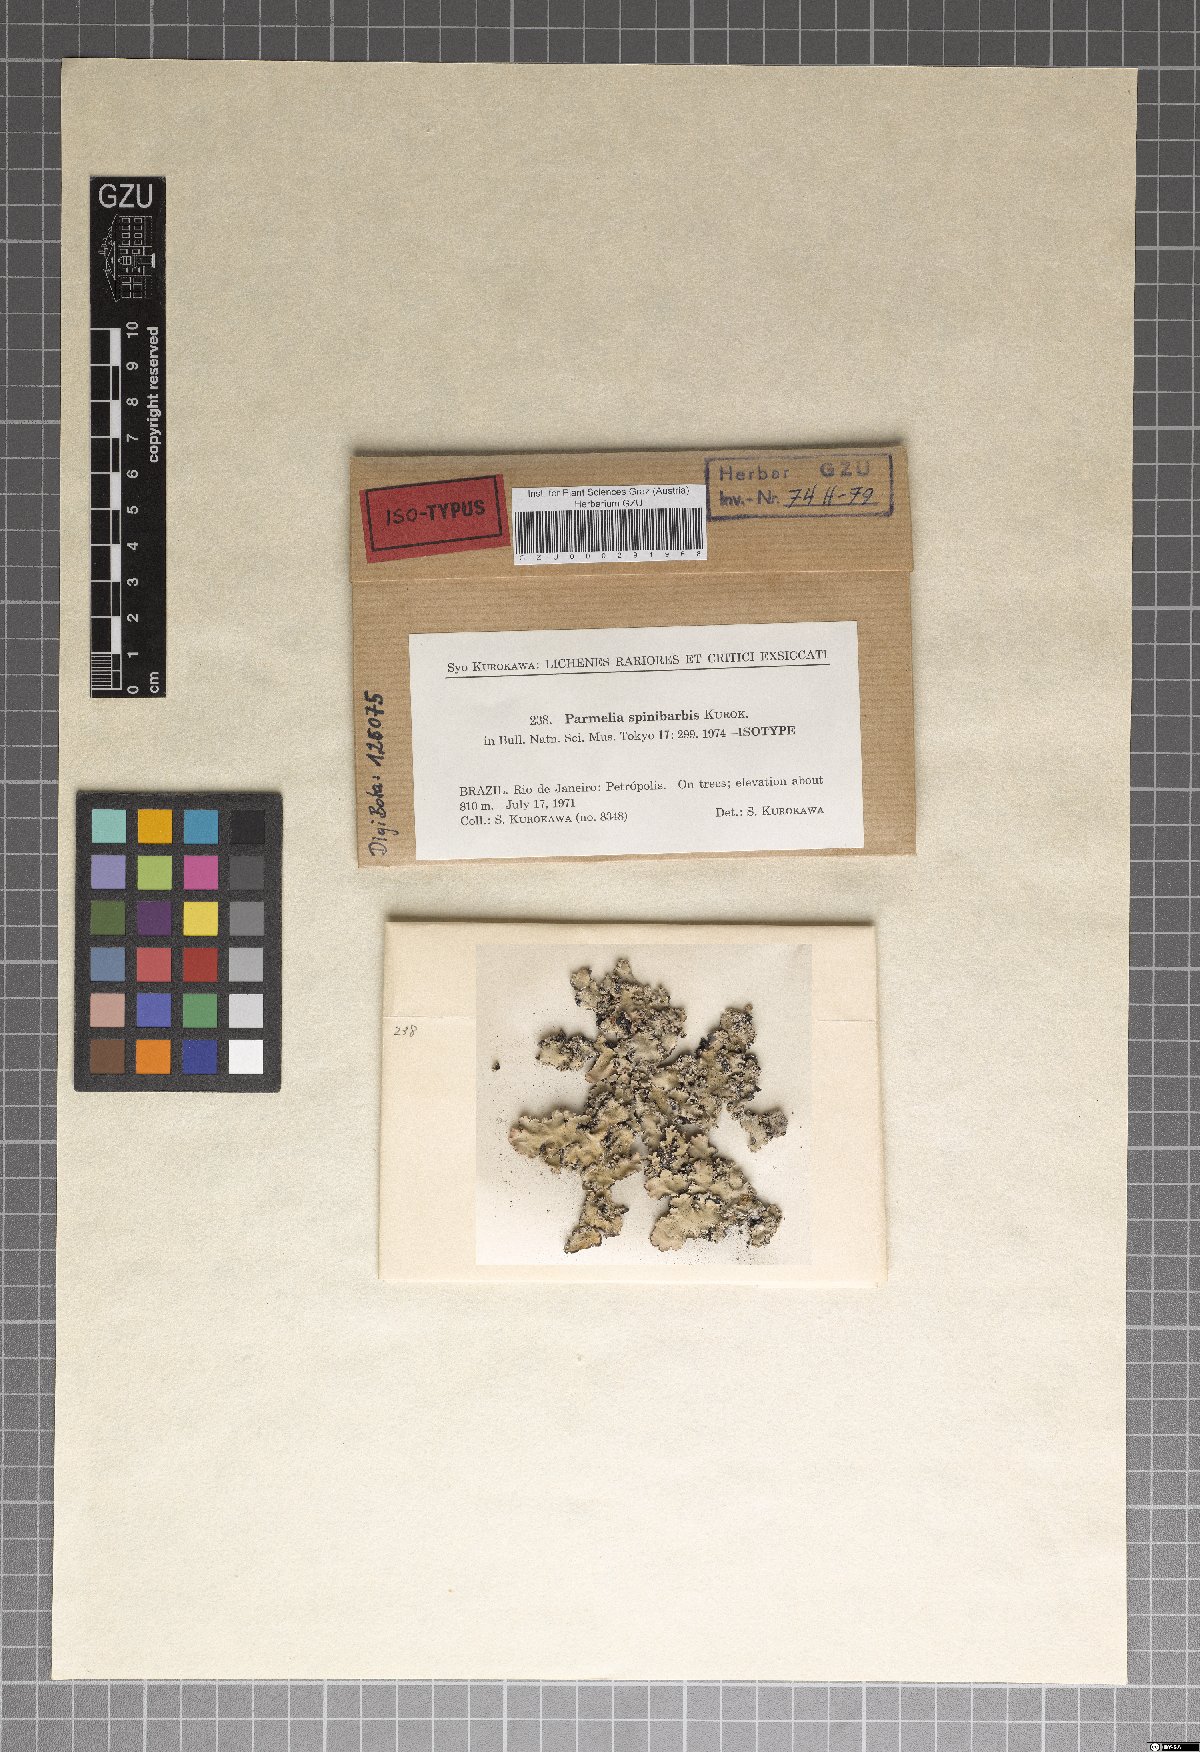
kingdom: Fungi
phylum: Ascomycota
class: Lecanoromycetes
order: Lecanorales
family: Parmeliaceae
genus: Parmotrema
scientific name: Parmotrema spinibarbe
